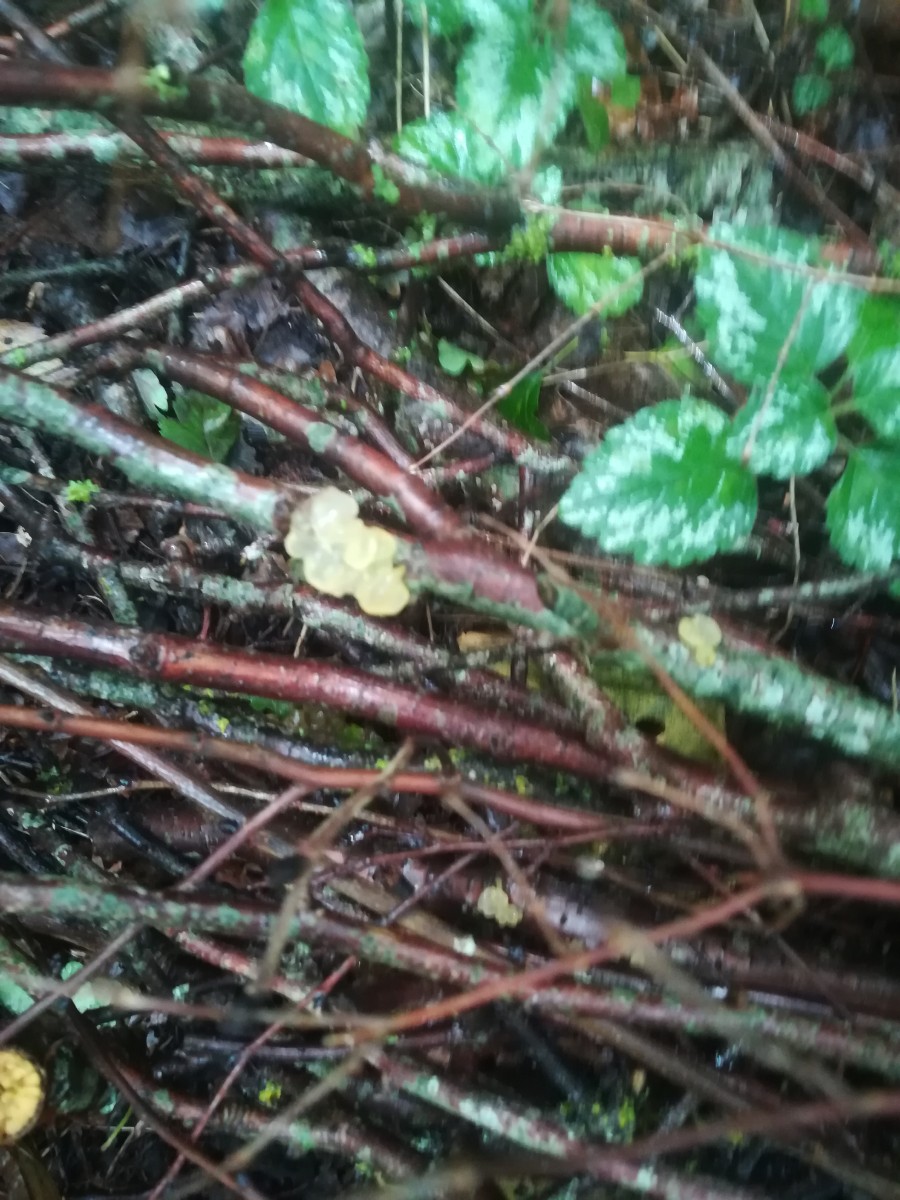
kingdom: Fungi
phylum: Basidiomycota
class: Tremellomycetes
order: Tremellales
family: Tremellaceae
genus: Tremella
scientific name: Tremella mesenterica
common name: gul bævresvamp
